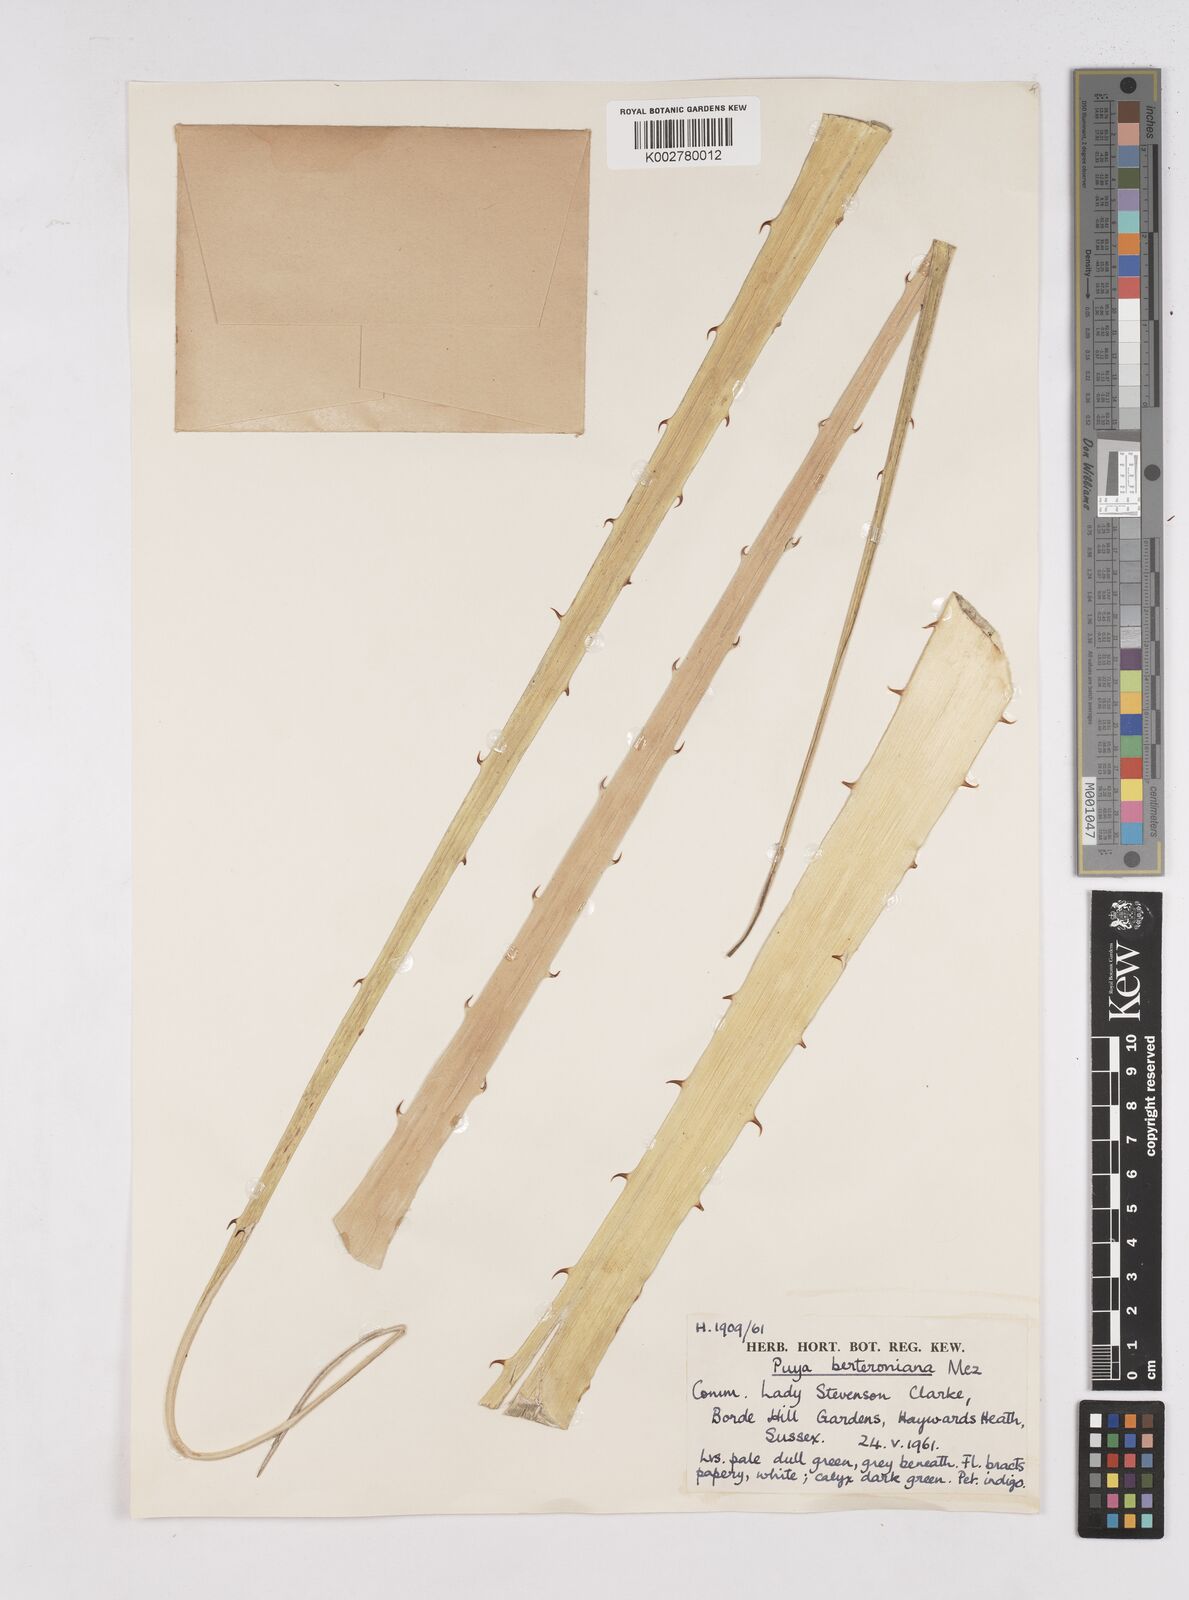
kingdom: Plantae
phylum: Tracheophyta
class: Liliopsida
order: Poales
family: Bromeliaceae
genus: Puya
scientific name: Puya berteroniana
